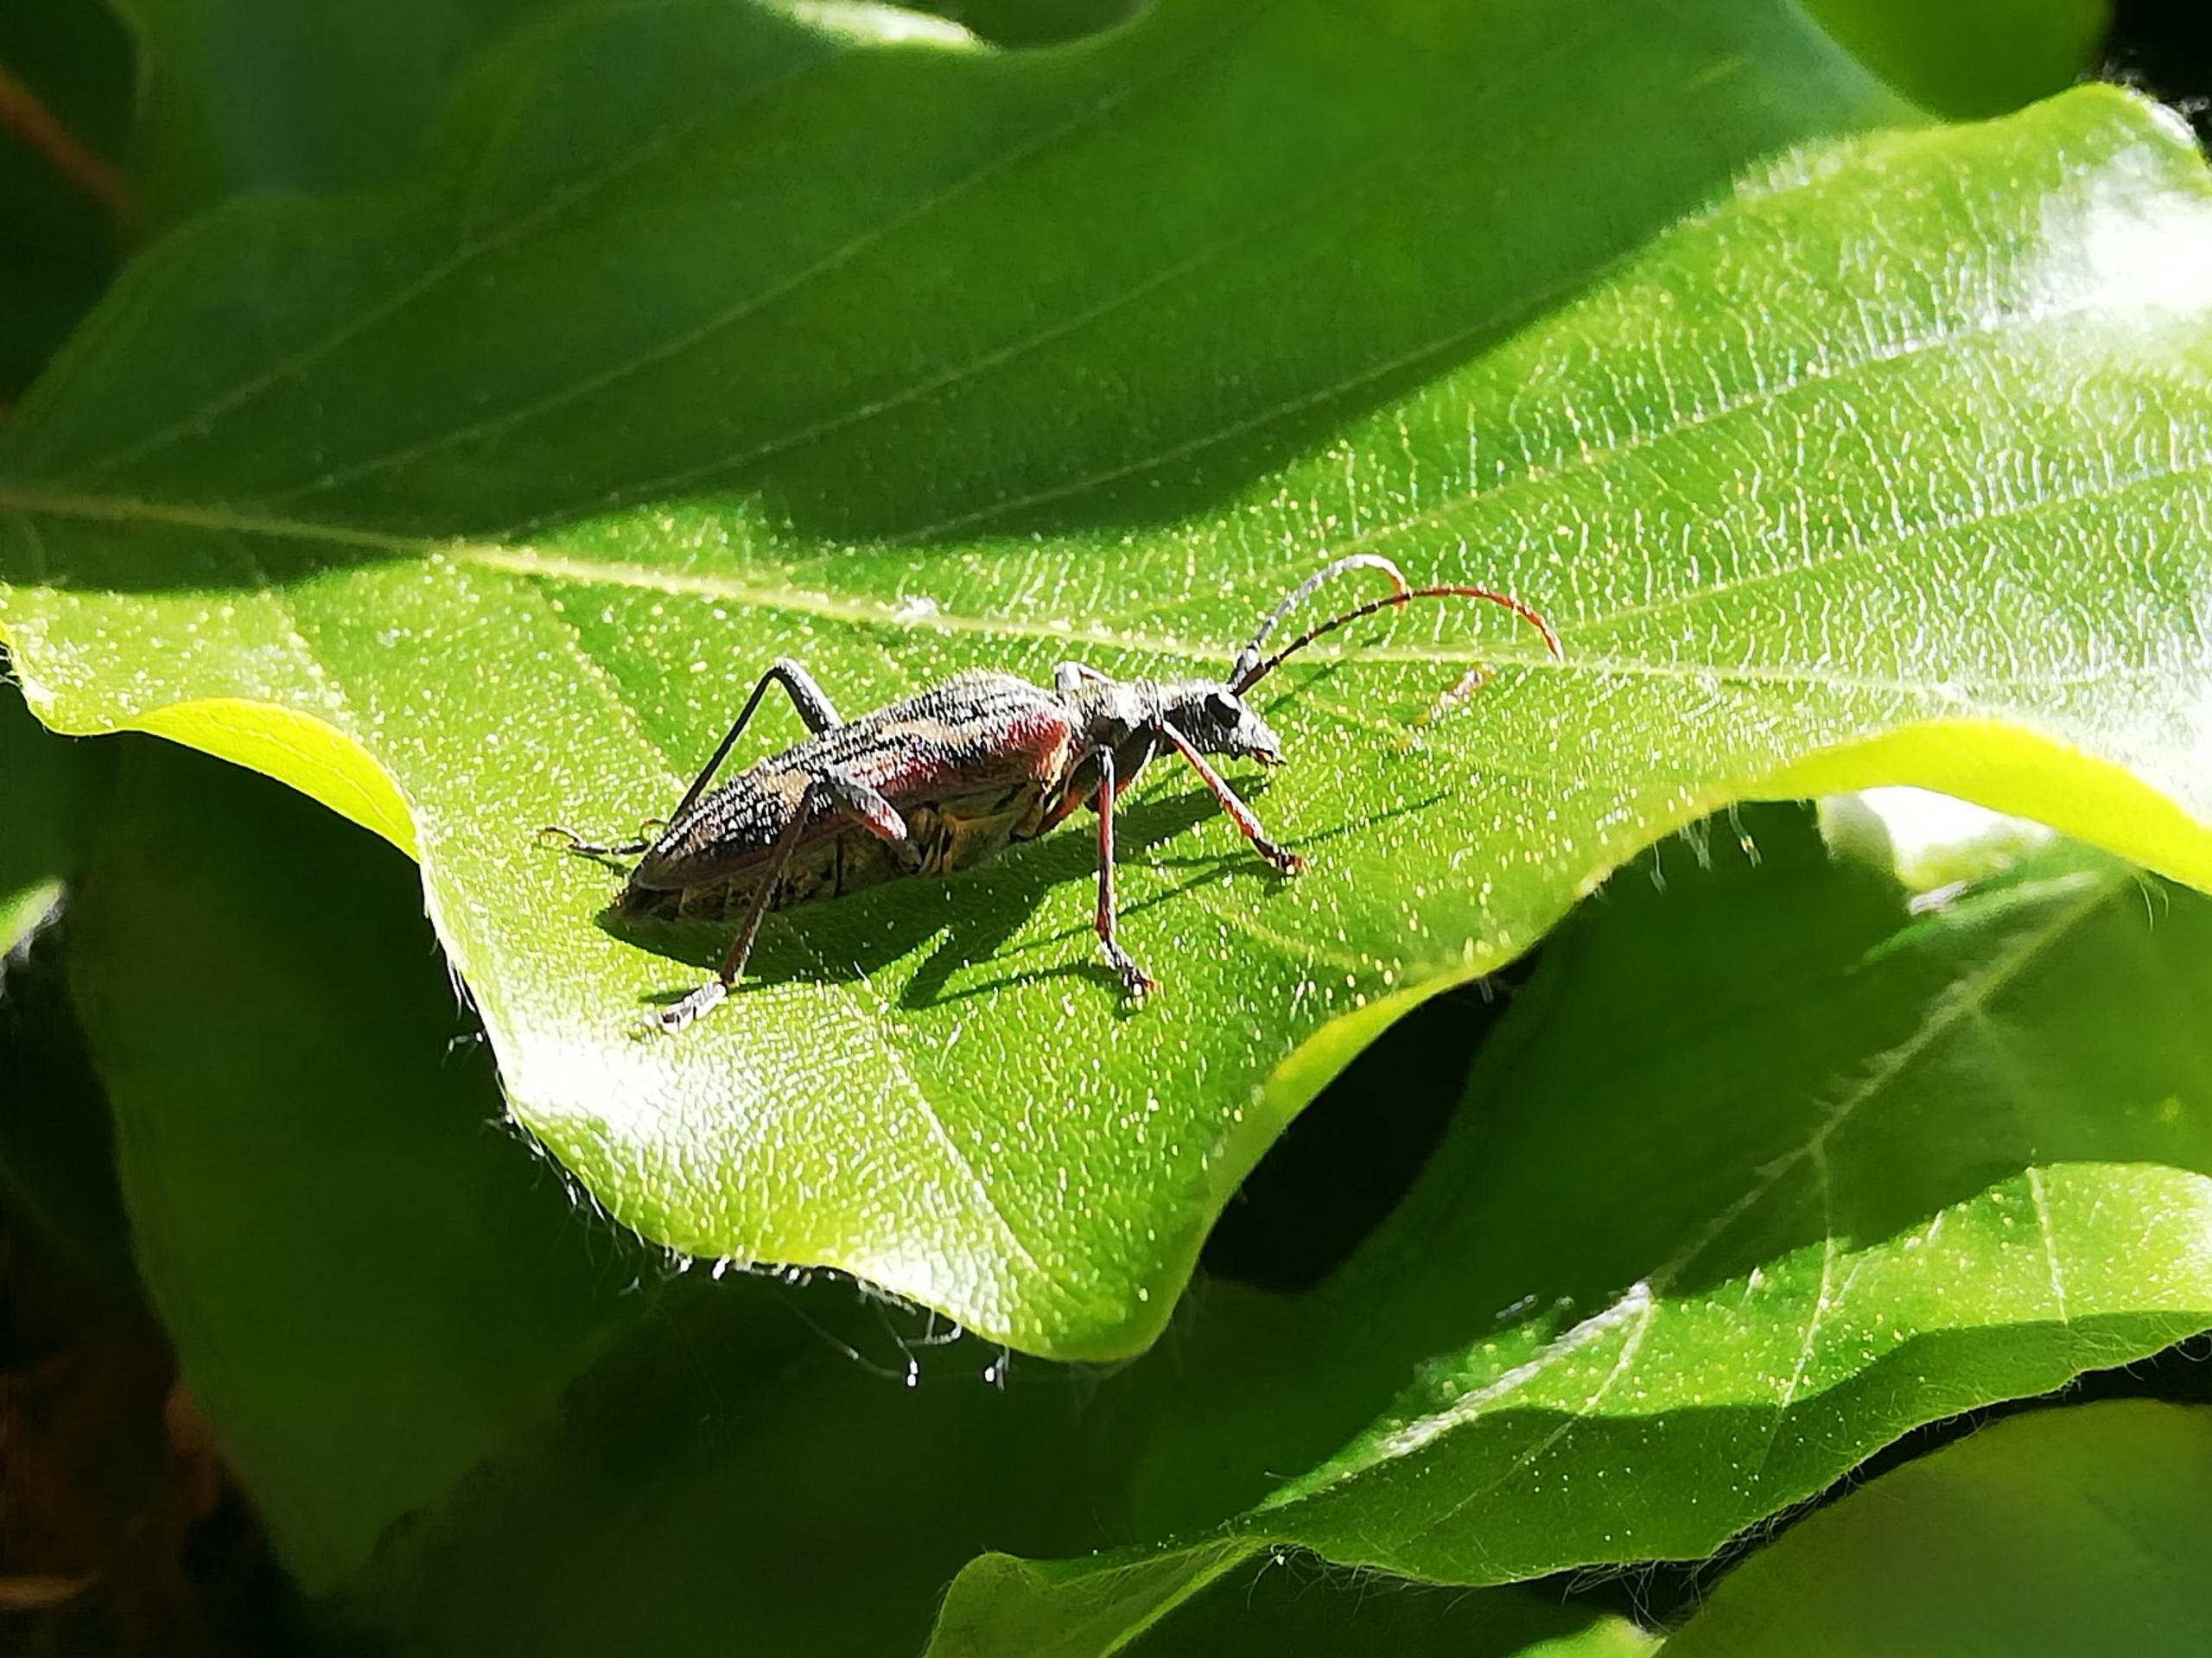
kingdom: Animalia
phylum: Arthropoda
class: Insecta
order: Coleoptera
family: Cerambycidae
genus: Rhagium
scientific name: Rhagium bifasciatum
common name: Båndet tandbuk
